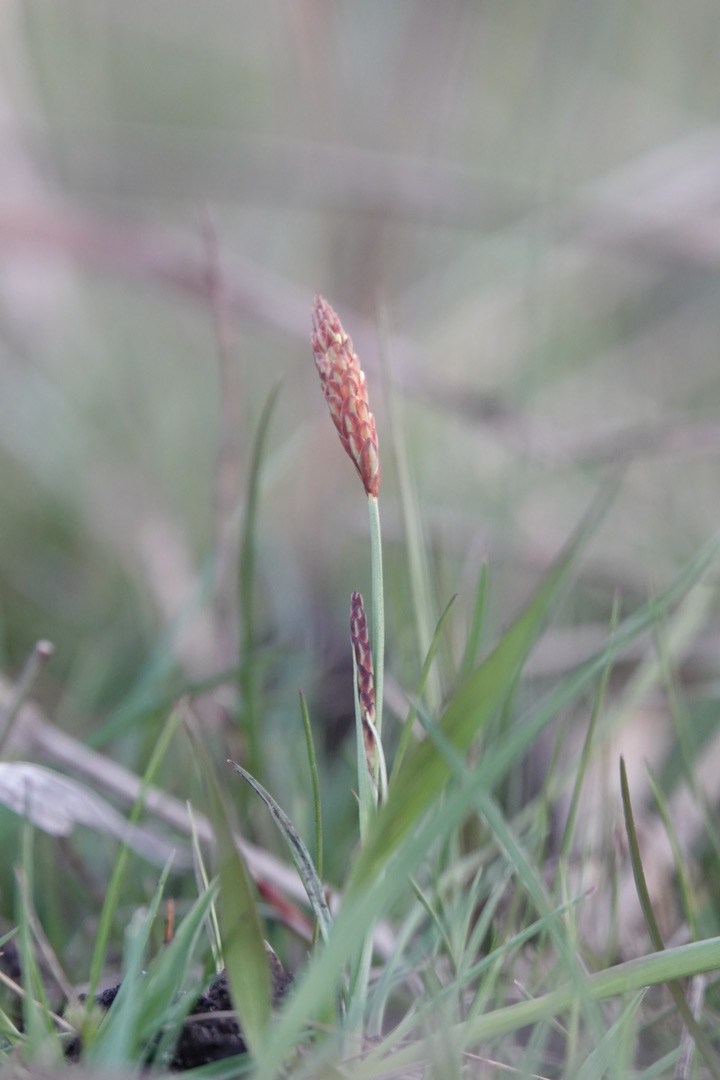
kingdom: Plantae
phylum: Tracheophyta
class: Liliopsida
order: Poales
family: Cyperaceae
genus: Carex
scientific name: Carex panicea
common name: Hirse-star
